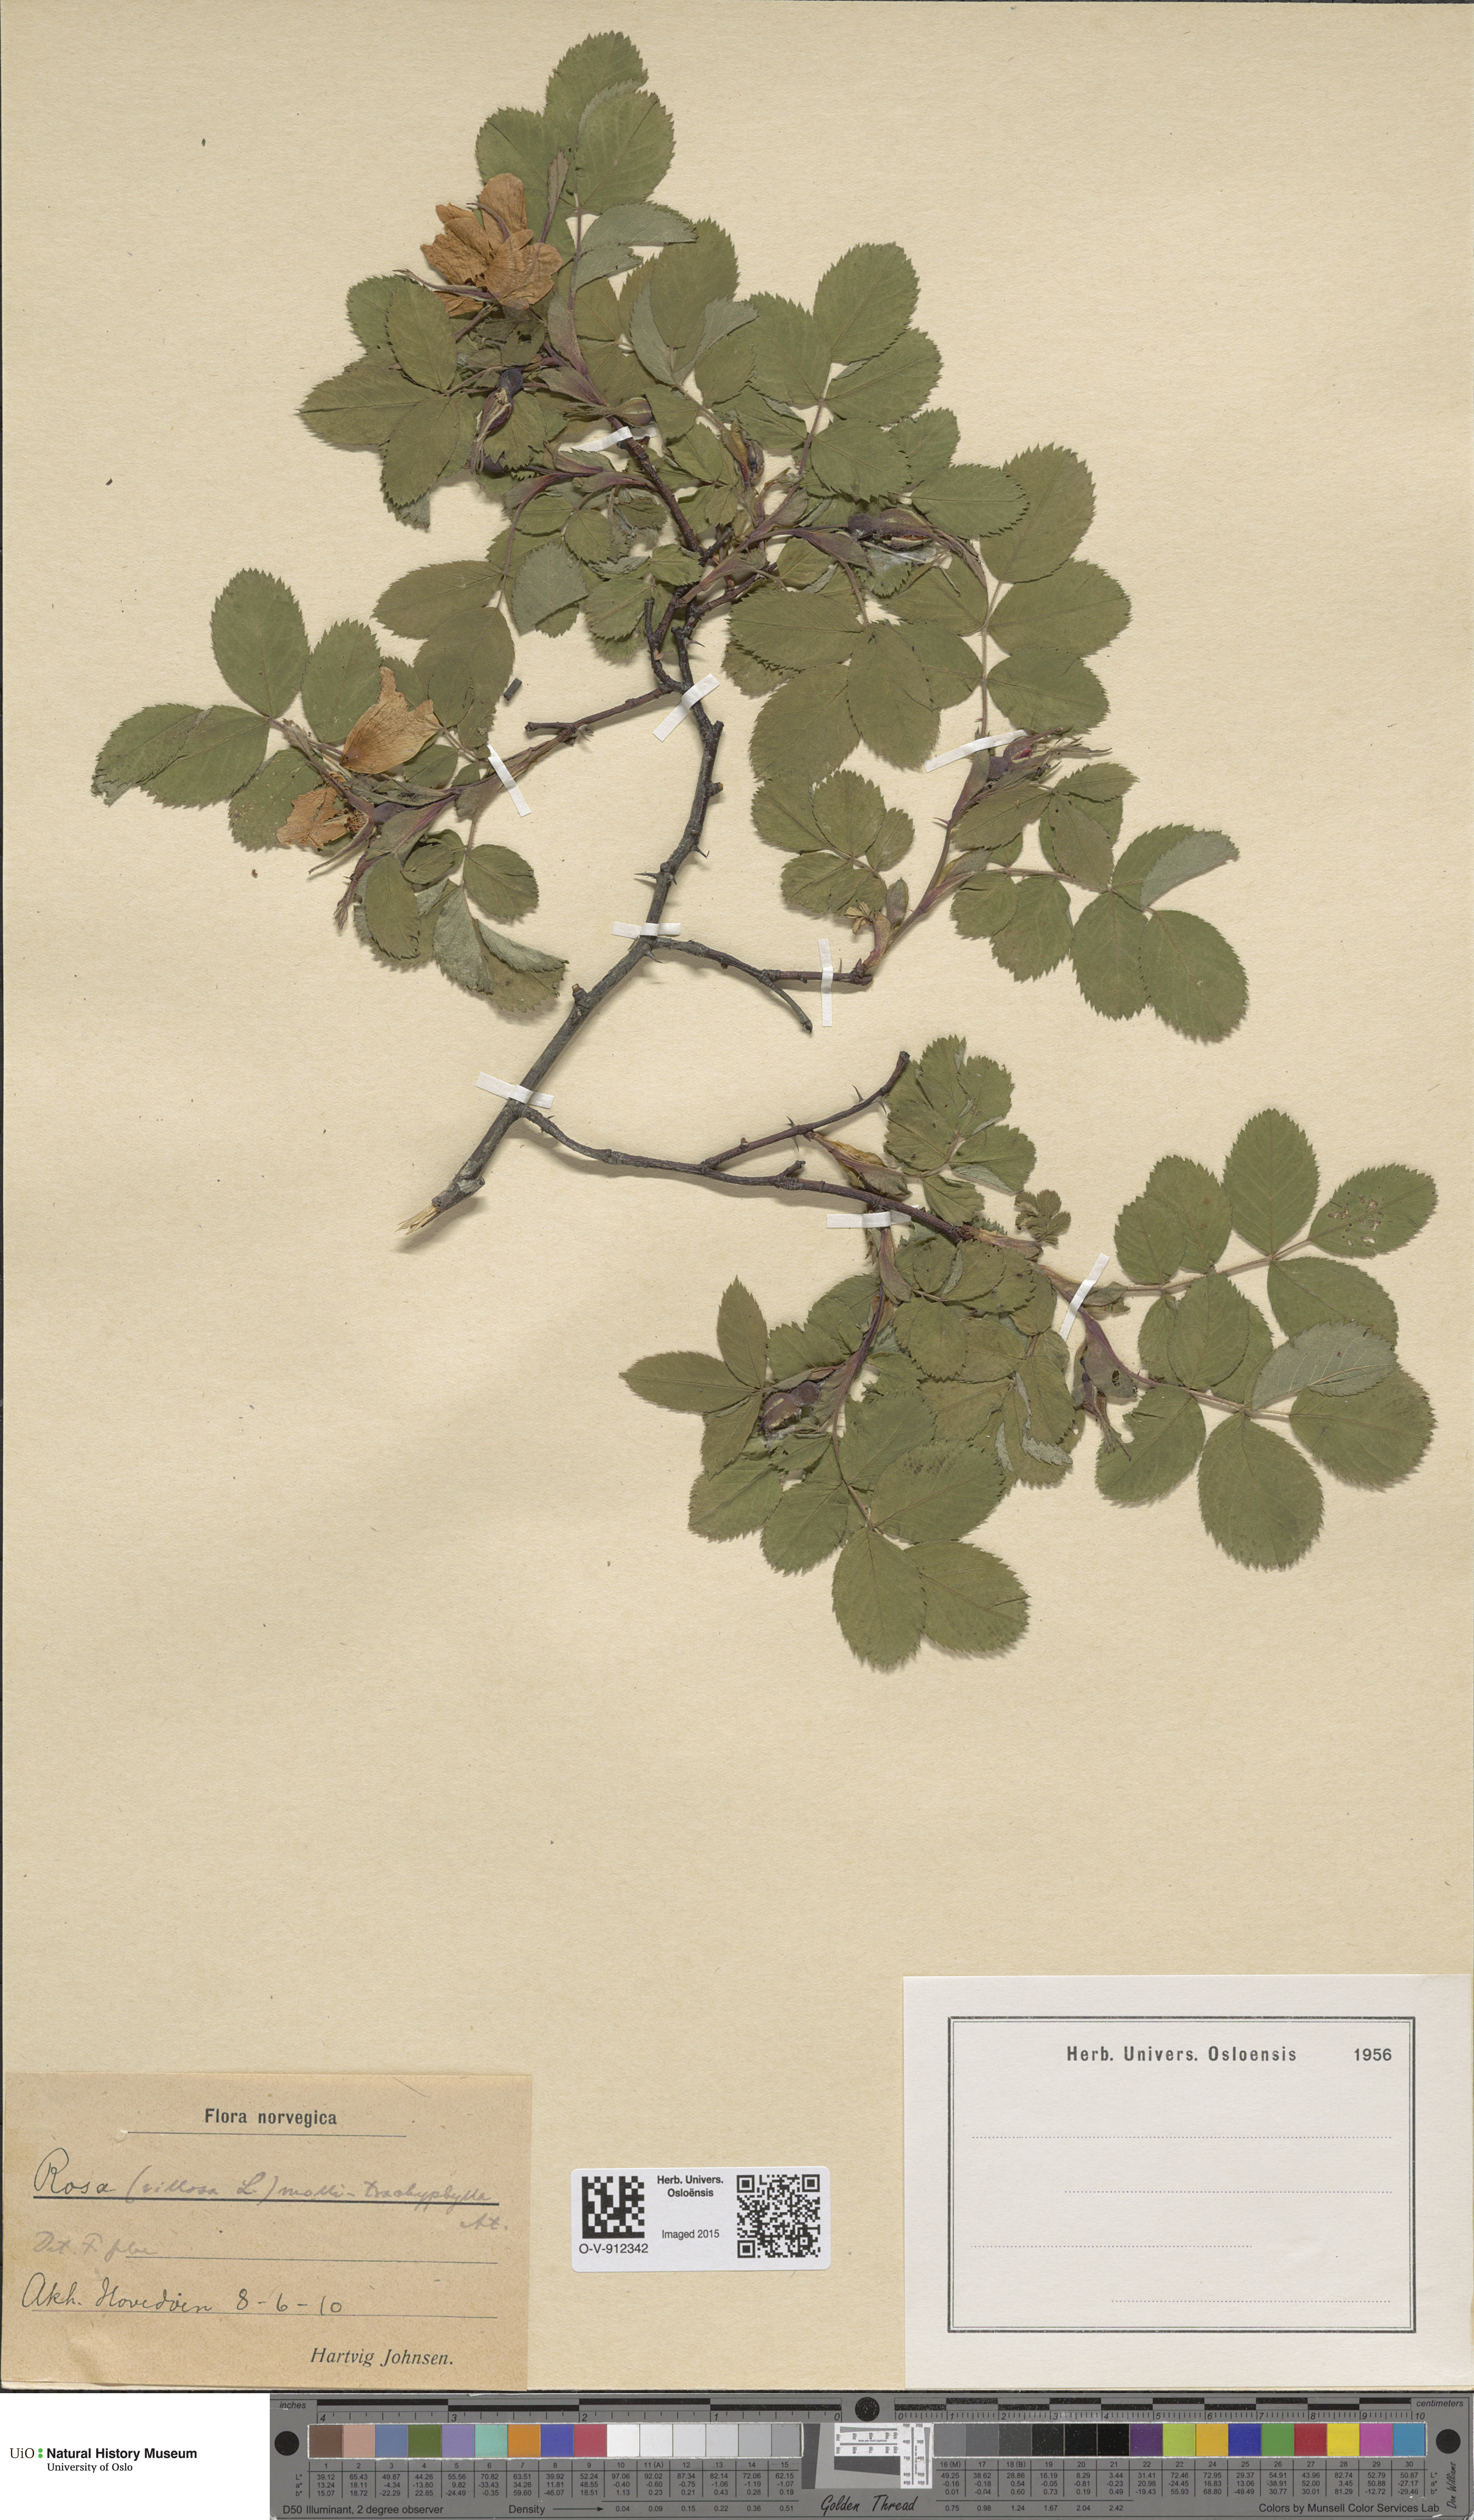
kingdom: Plantae
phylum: Tracheophyta
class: Magnoliopsida
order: Rosales
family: Rosaceae
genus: Rosa
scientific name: Rosa mollis
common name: Rose
